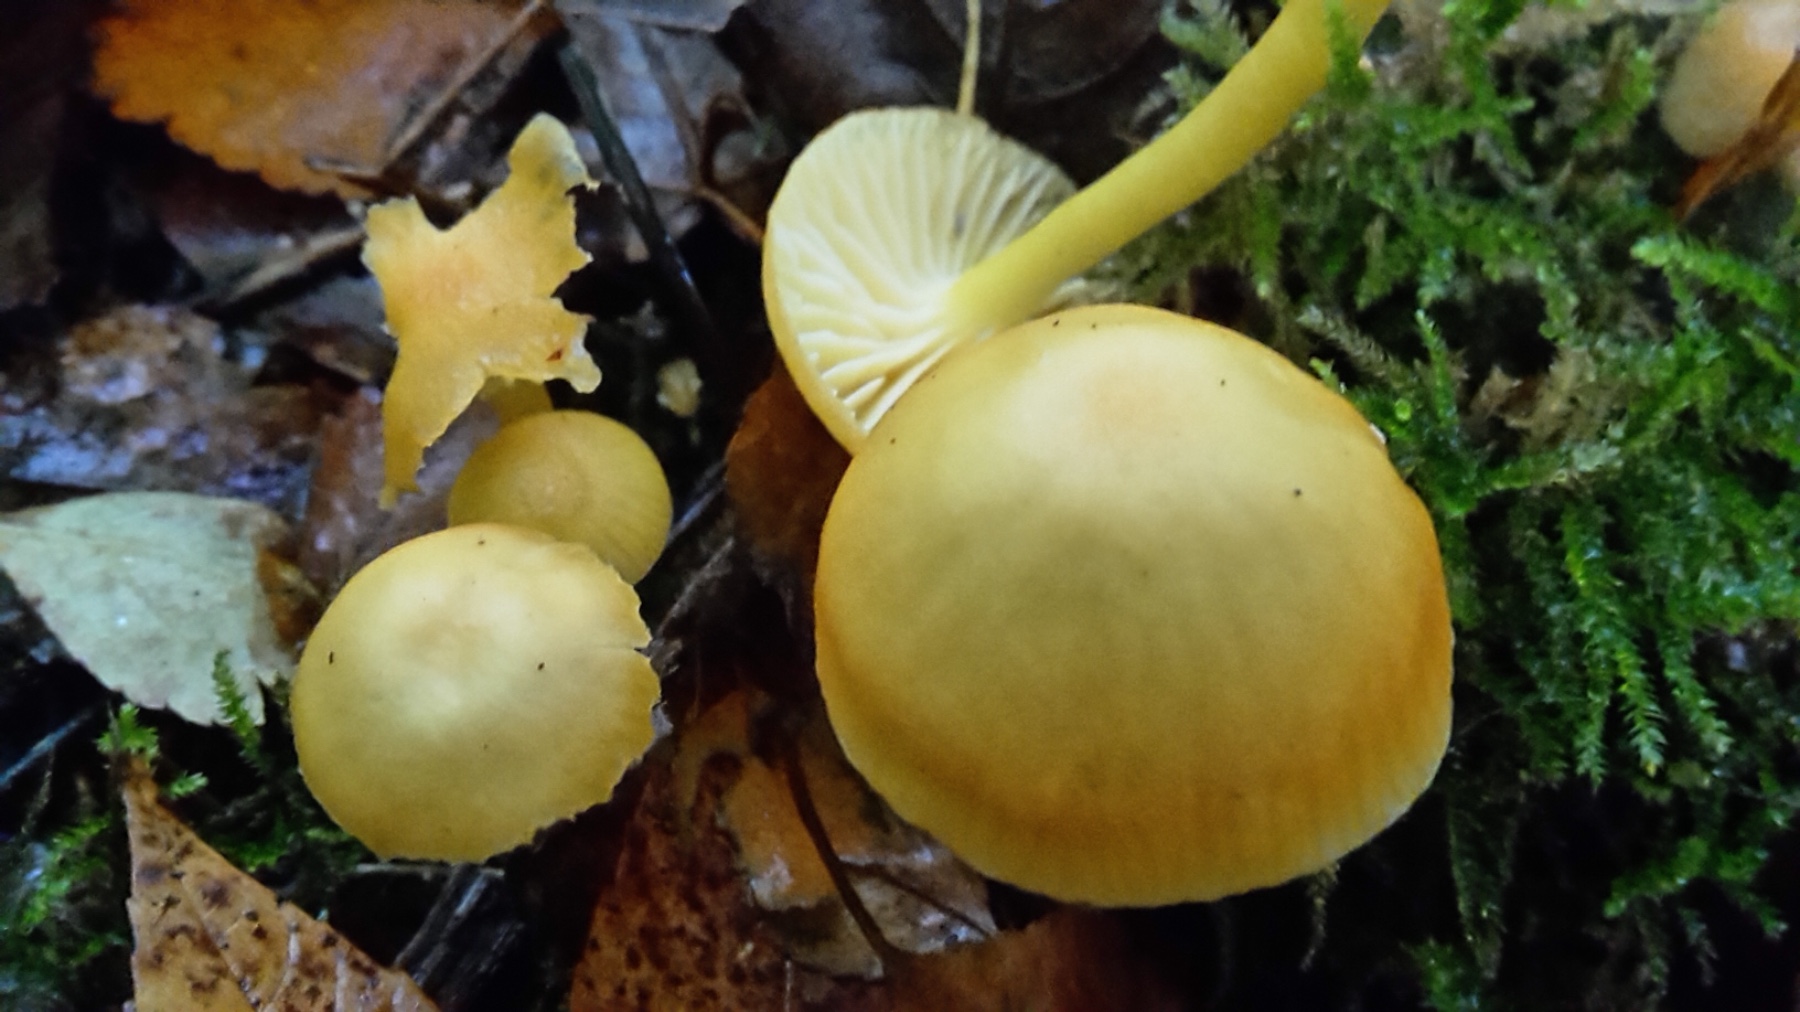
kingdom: Fungi
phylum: Basidiomycota
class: Agaricomycetes
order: Agaricales
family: Hygrophoraceae
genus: Hygrocybe
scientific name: Hygrocybe ceracea
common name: voksgul vokshat
